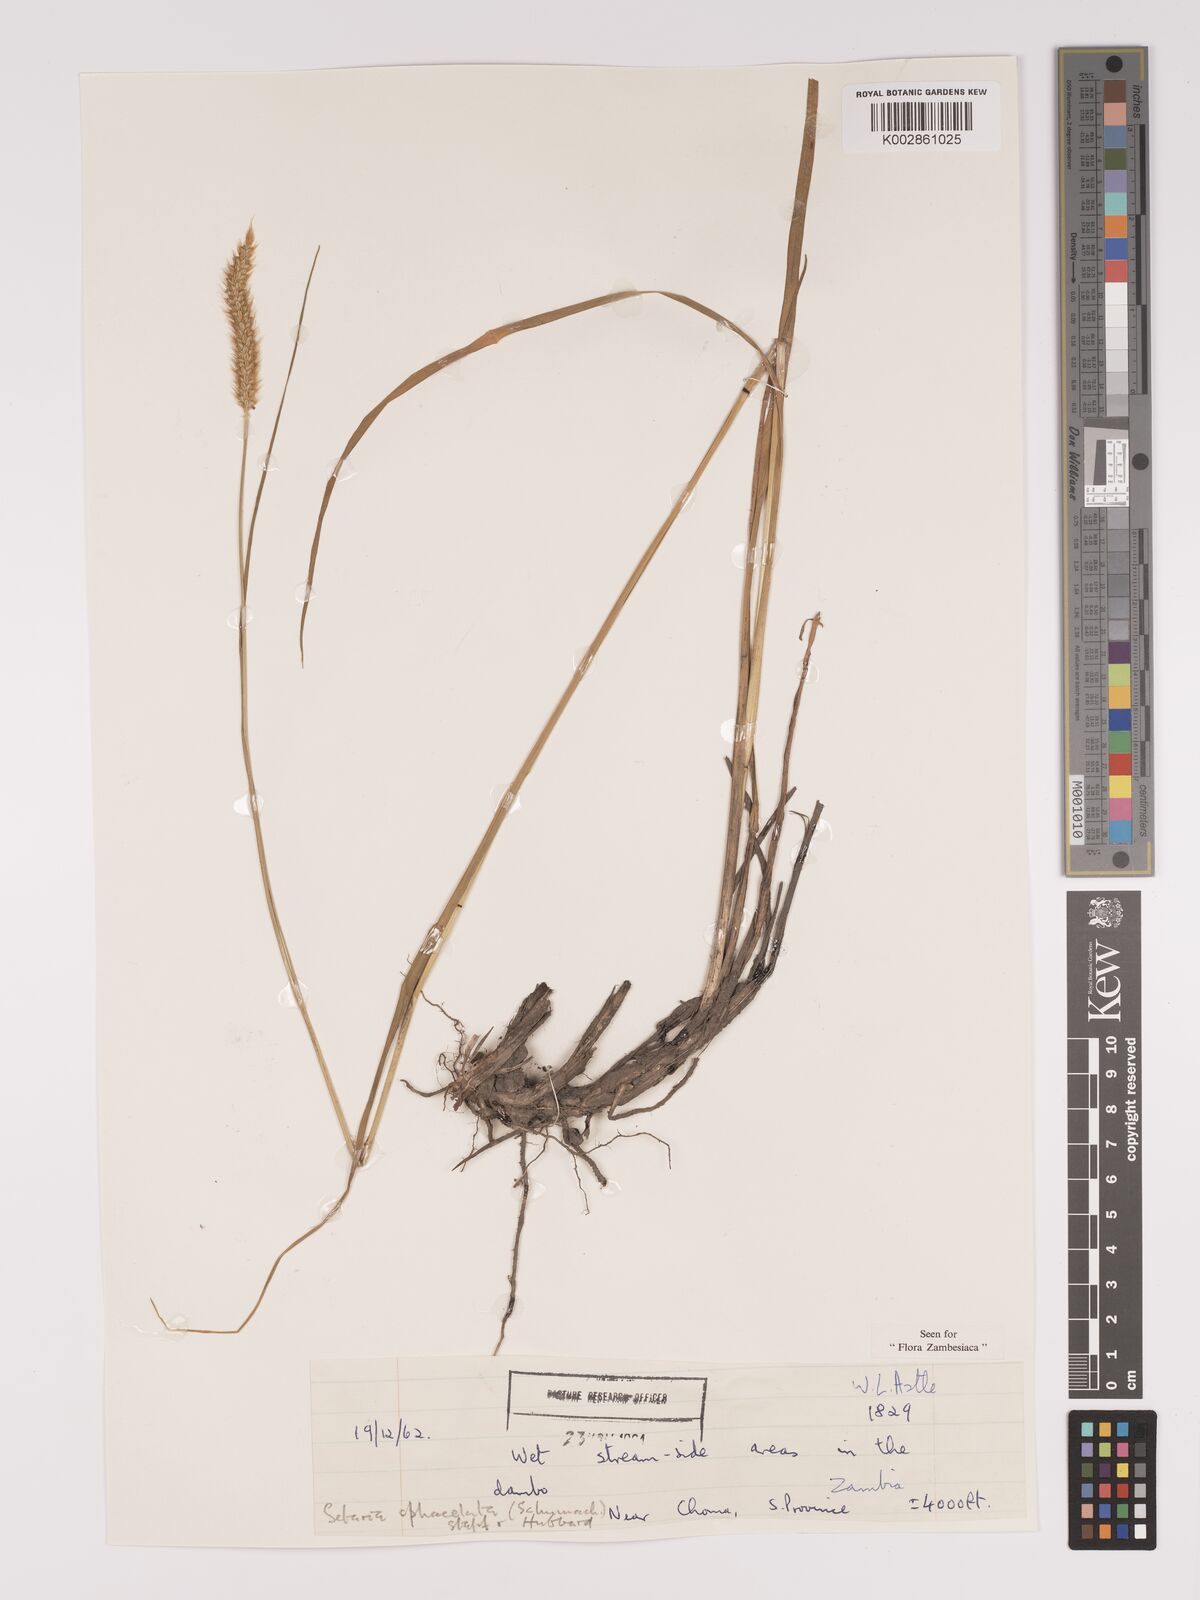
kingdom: Plantae
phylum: Tracheophyta
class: Liliopsida
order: Poales
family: Poaceae
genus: Setaria
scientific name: Setaria sphacelata
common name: African bristlegrass
